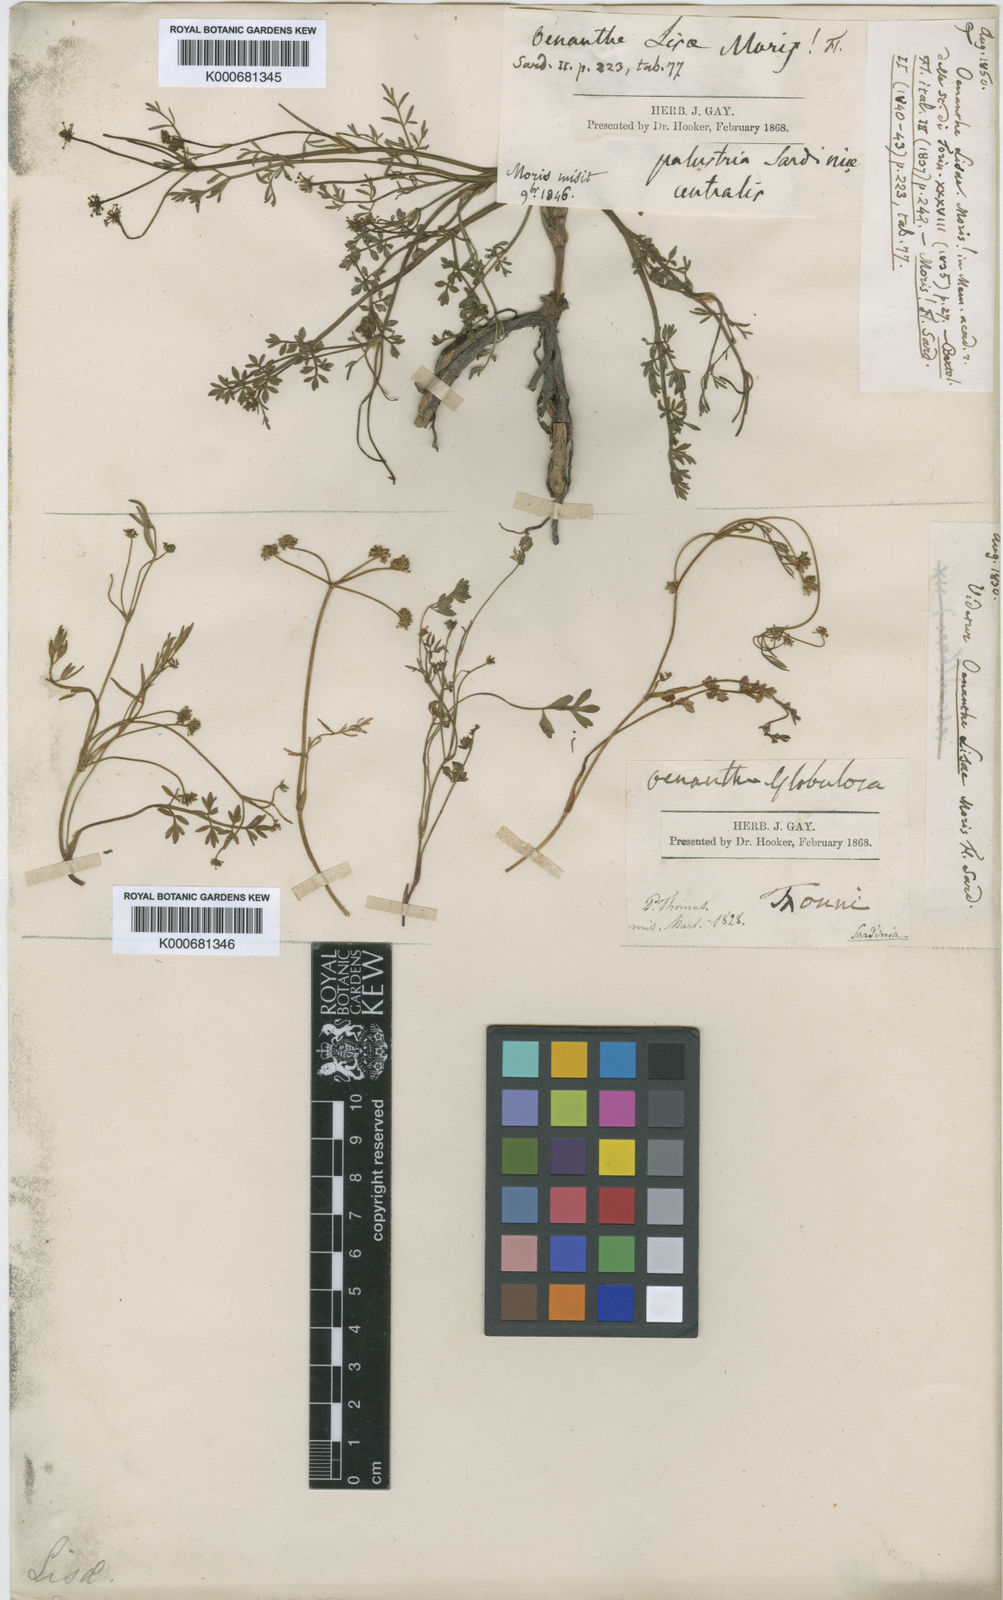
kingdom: Plantae
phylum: Tracheophyta
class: Magnoliopsida
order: Apiales
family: Apiaceae
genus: Oenanthe
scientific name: Oenanthe lisae
